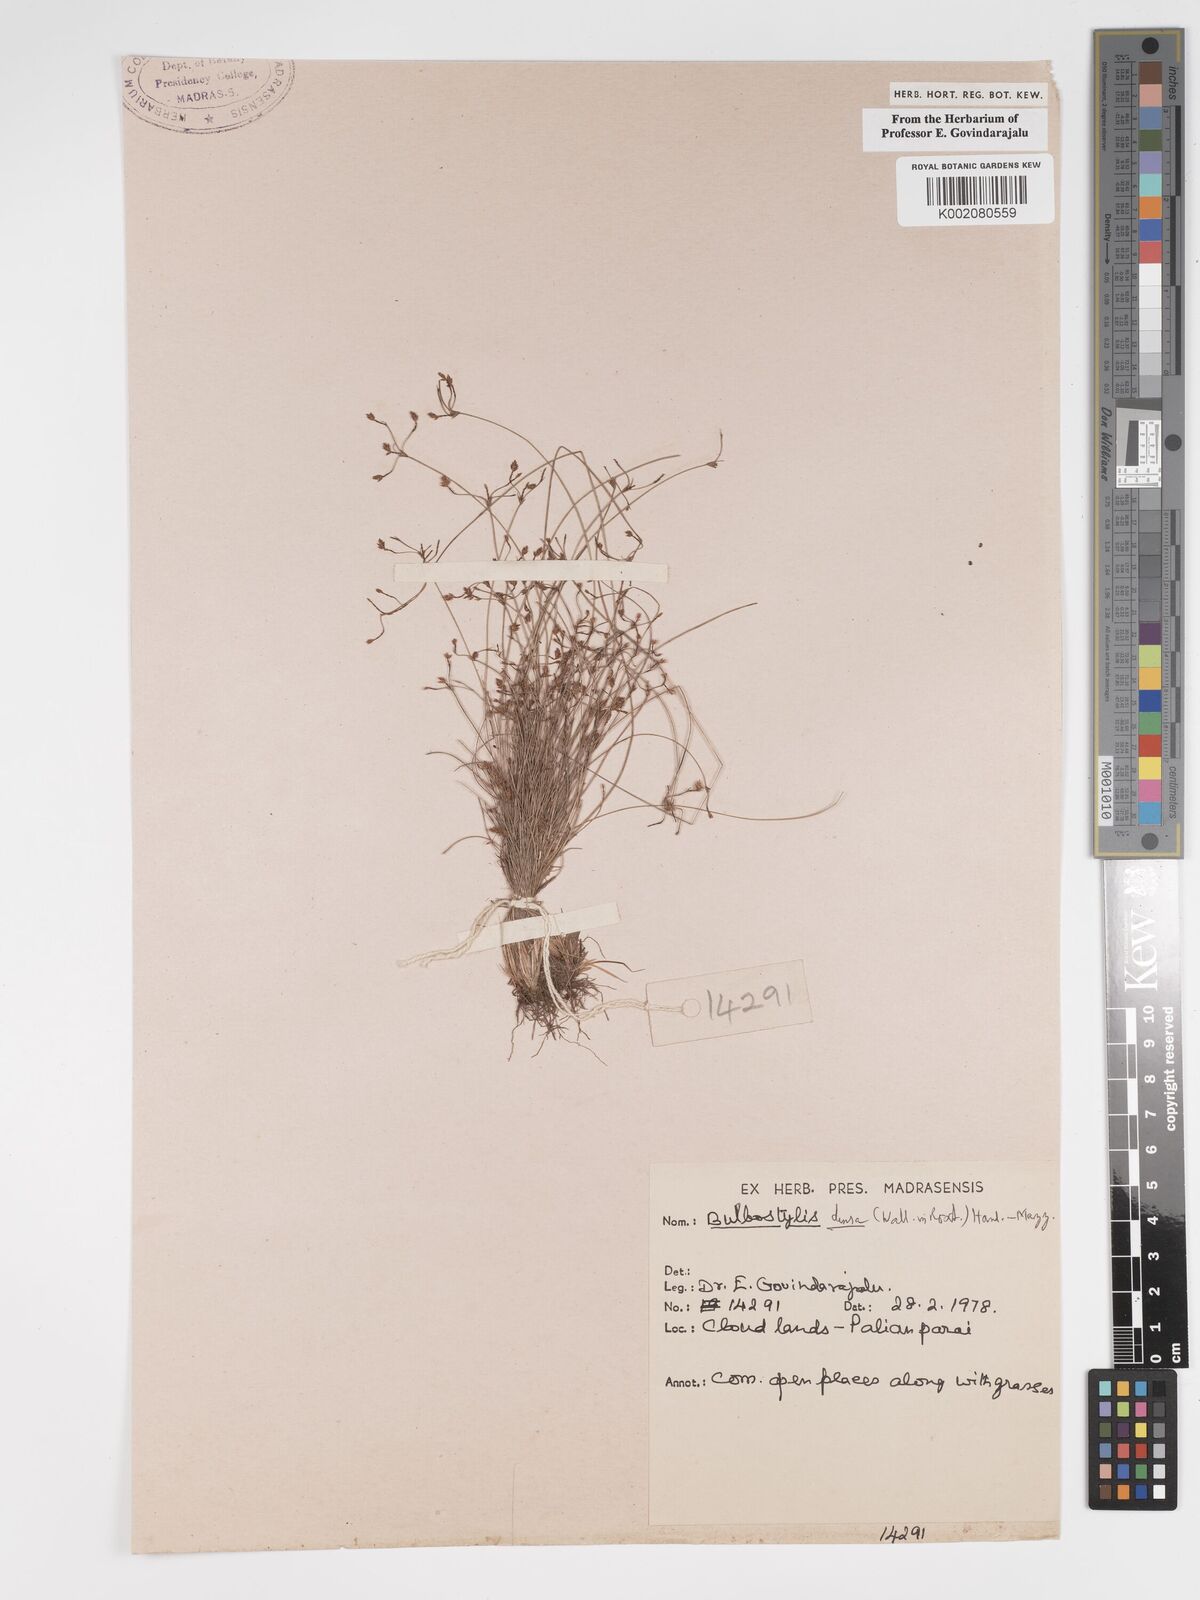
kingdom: Plantae
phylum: Tracheophyta
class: Liliopsida
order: Poales
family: Cyperaceae
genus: Bulbostylis
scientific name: Bulbostylis densa
